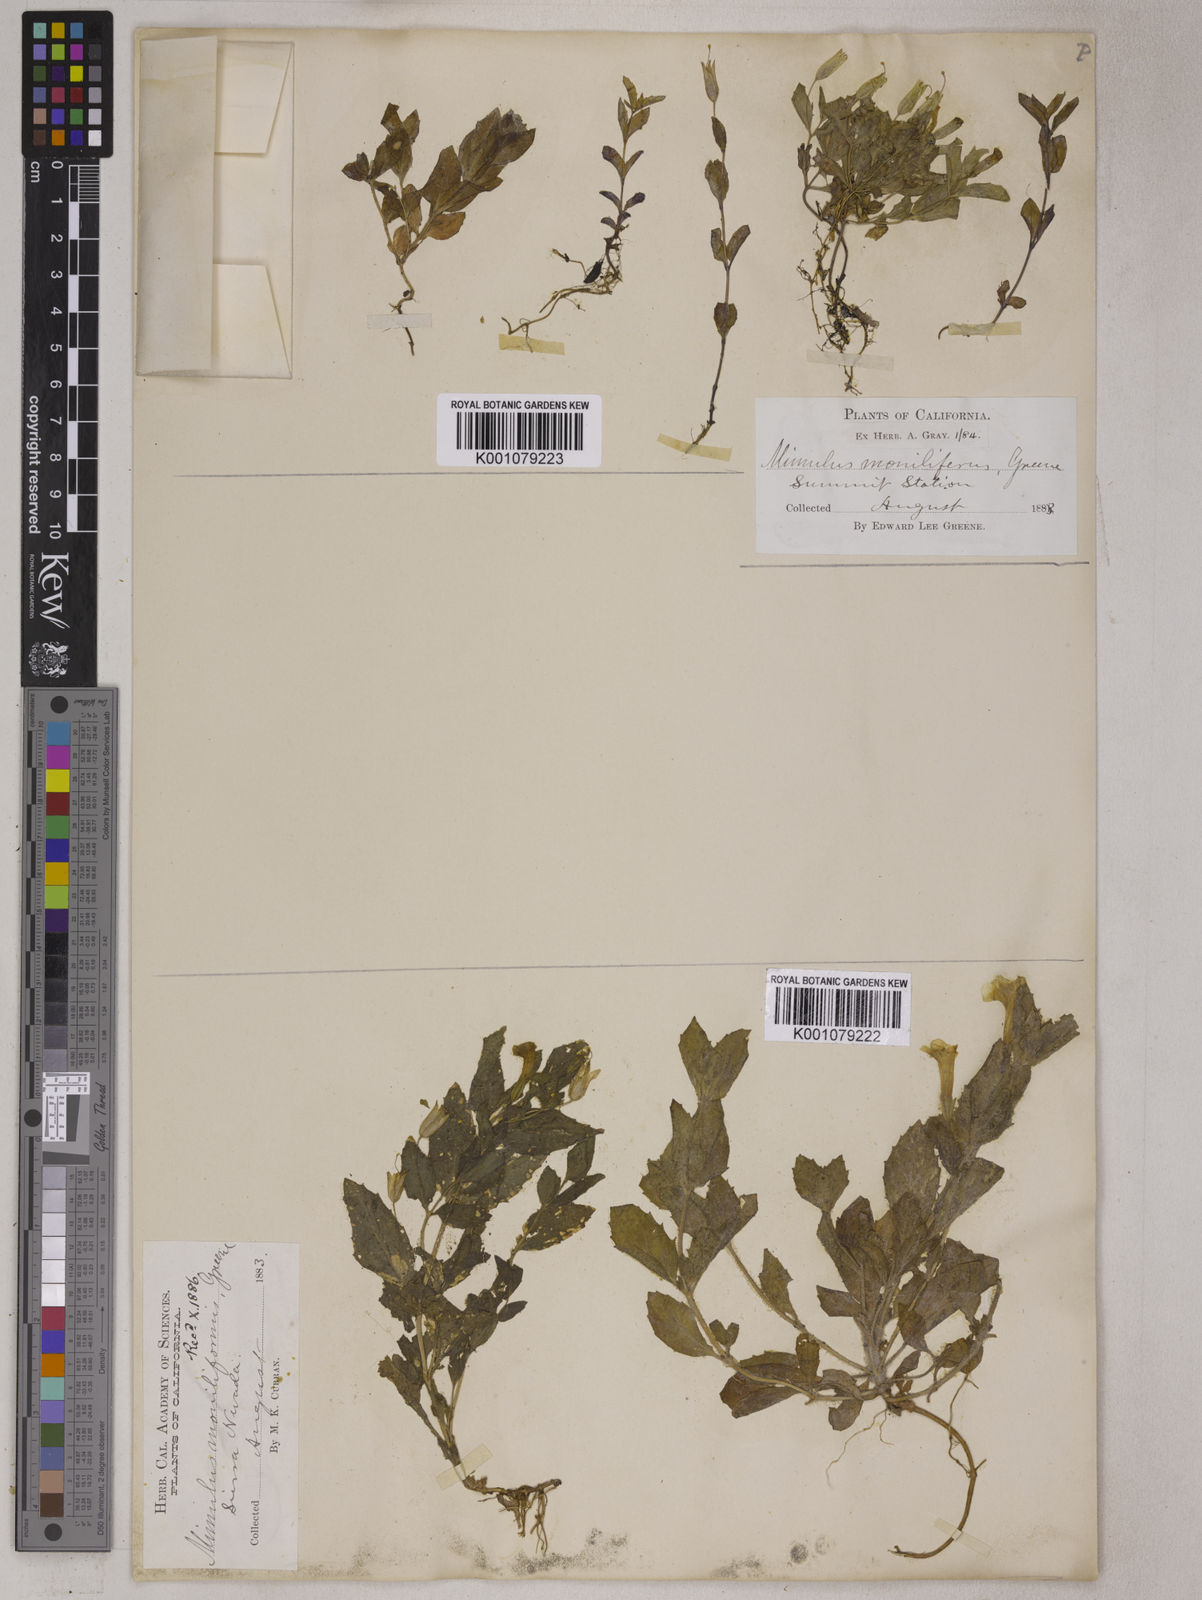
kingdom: Plantae
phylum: Tracheophyta
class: Magnoliopsida
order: Lamiales
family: Phrymaceae
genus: Mimulus
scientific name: Mimulus
